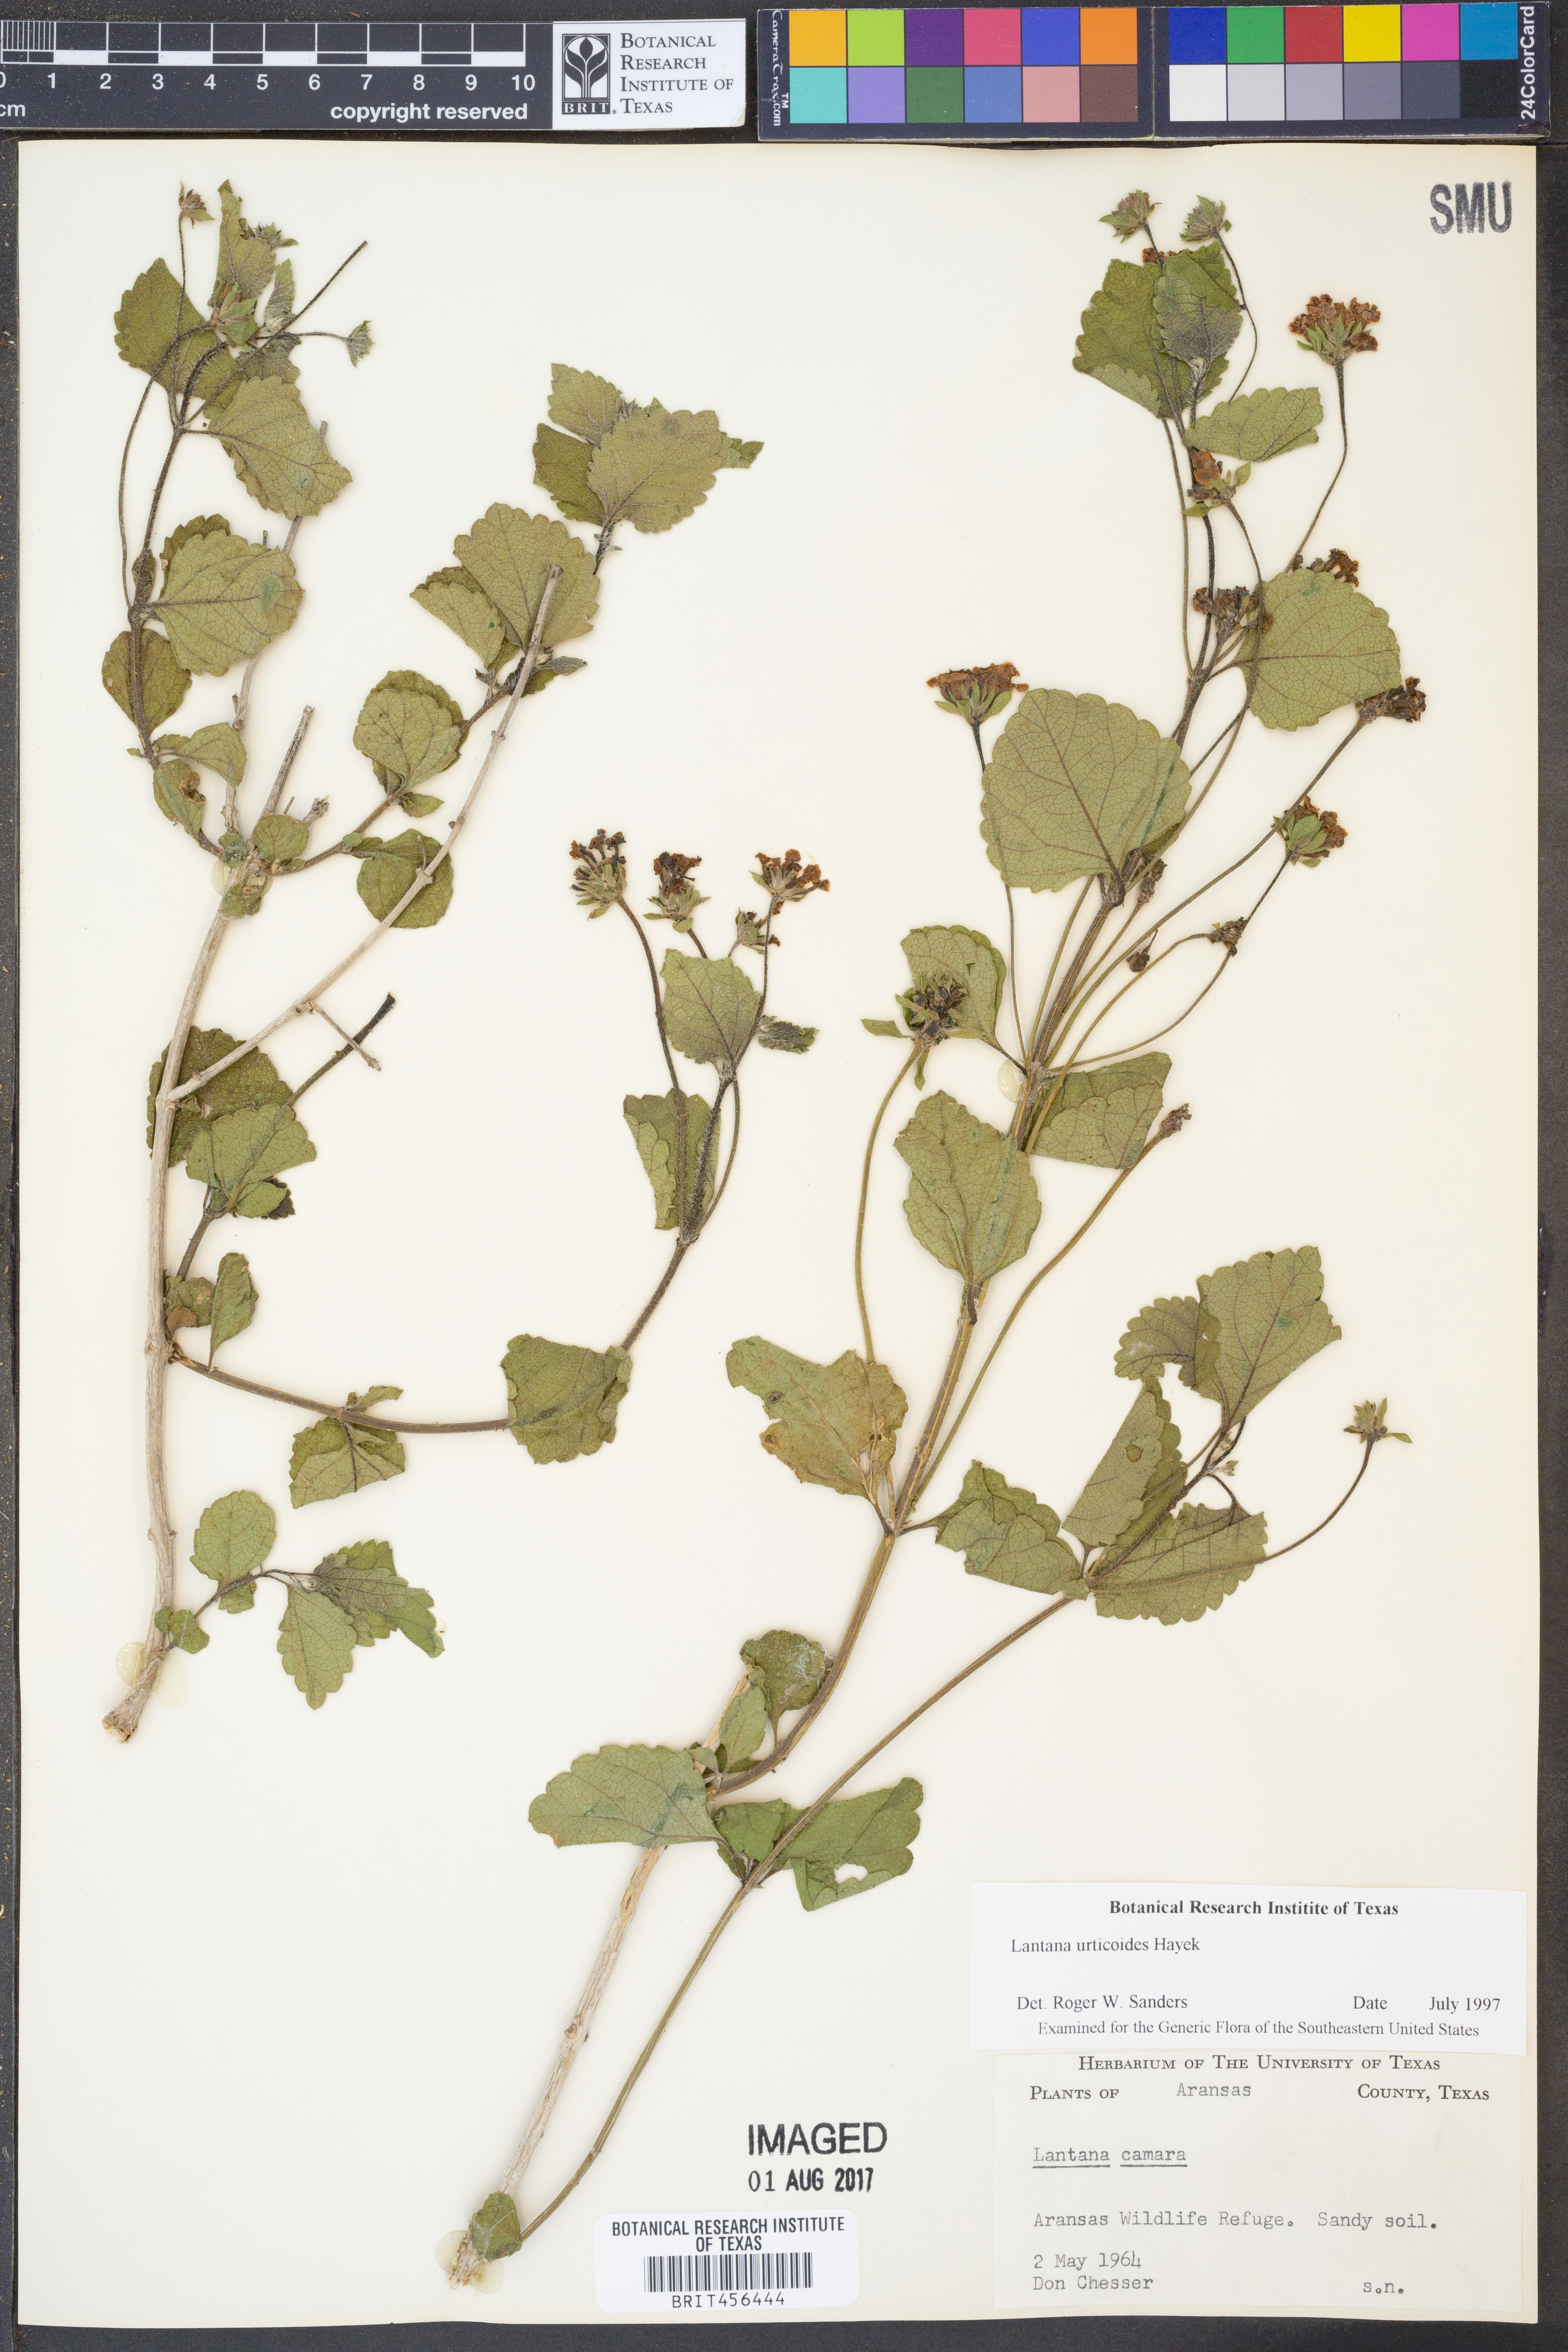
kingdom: Plantae
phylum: Tracheophyta
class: Magnoliopsida
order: Lamiales
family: Verbenaceae
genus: Lantana
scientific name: Lantana urticoides
